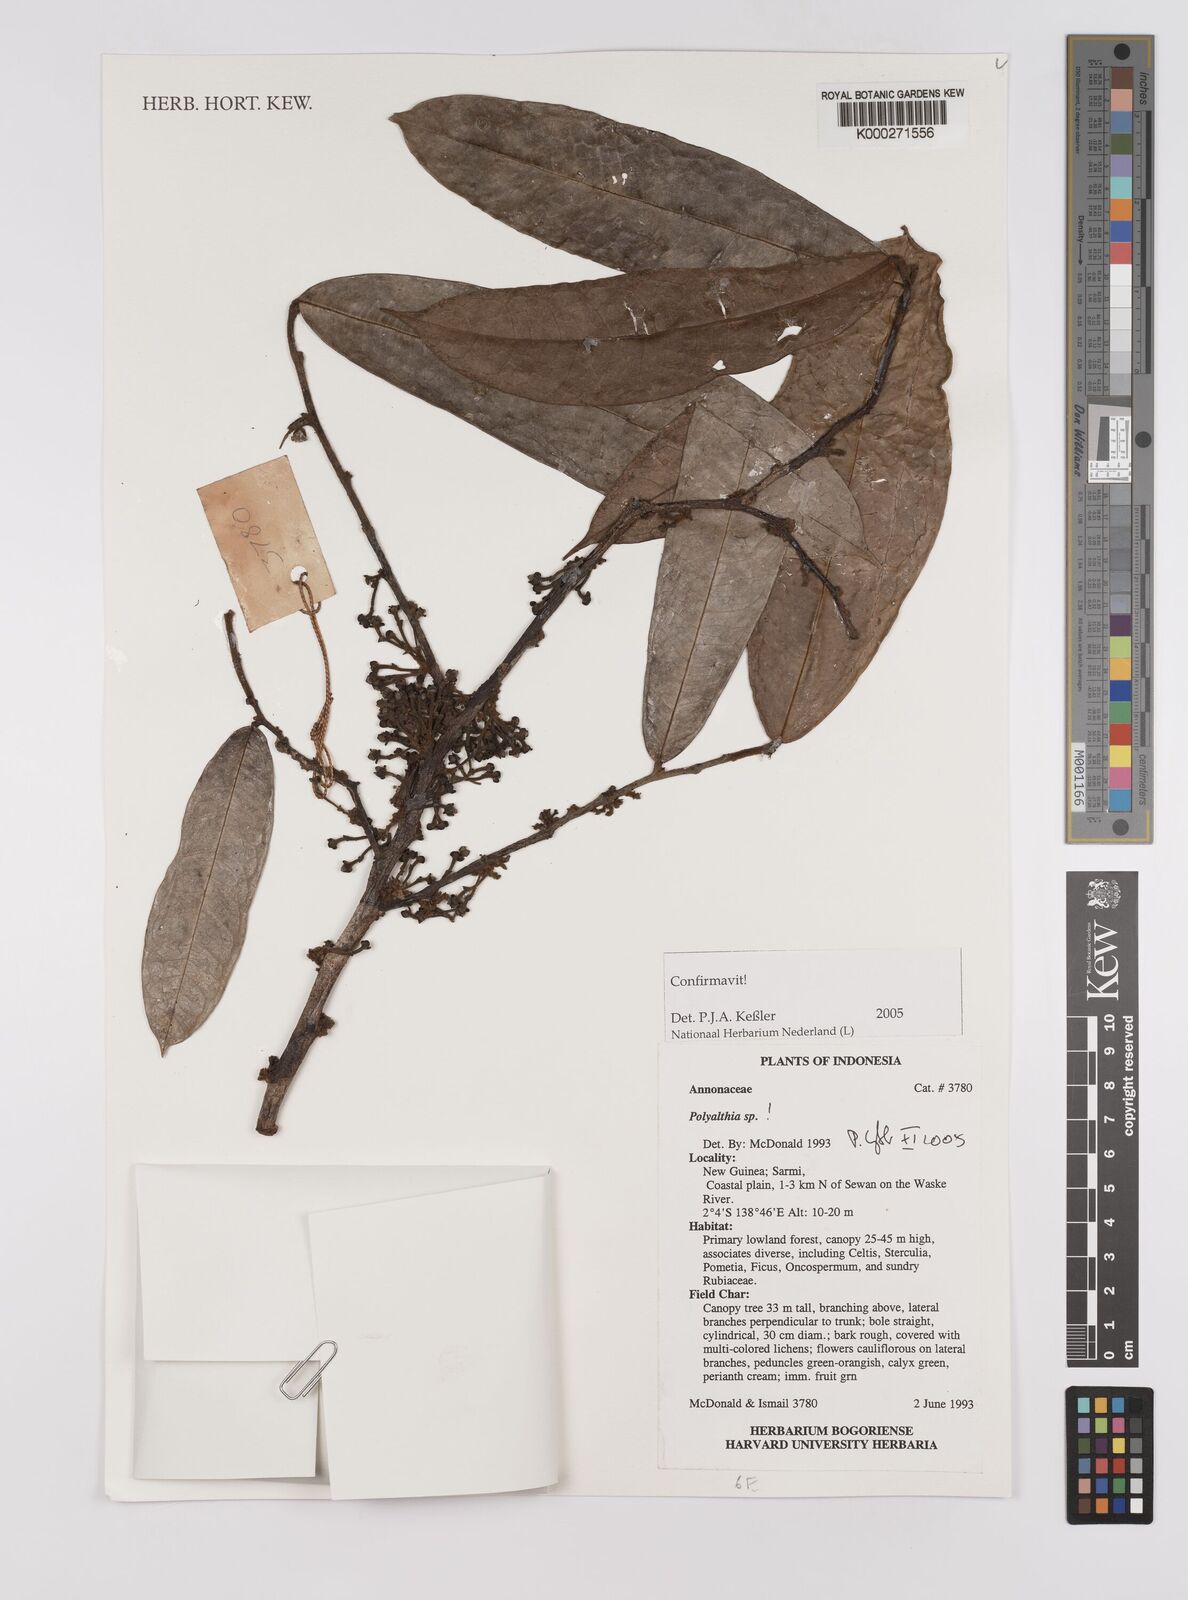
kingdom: Plantae
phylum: Tracheophyta
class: Magnoliopsida
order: Magnoliales
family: Annonaceae
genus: Polyalthia
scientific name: Polyalthia
